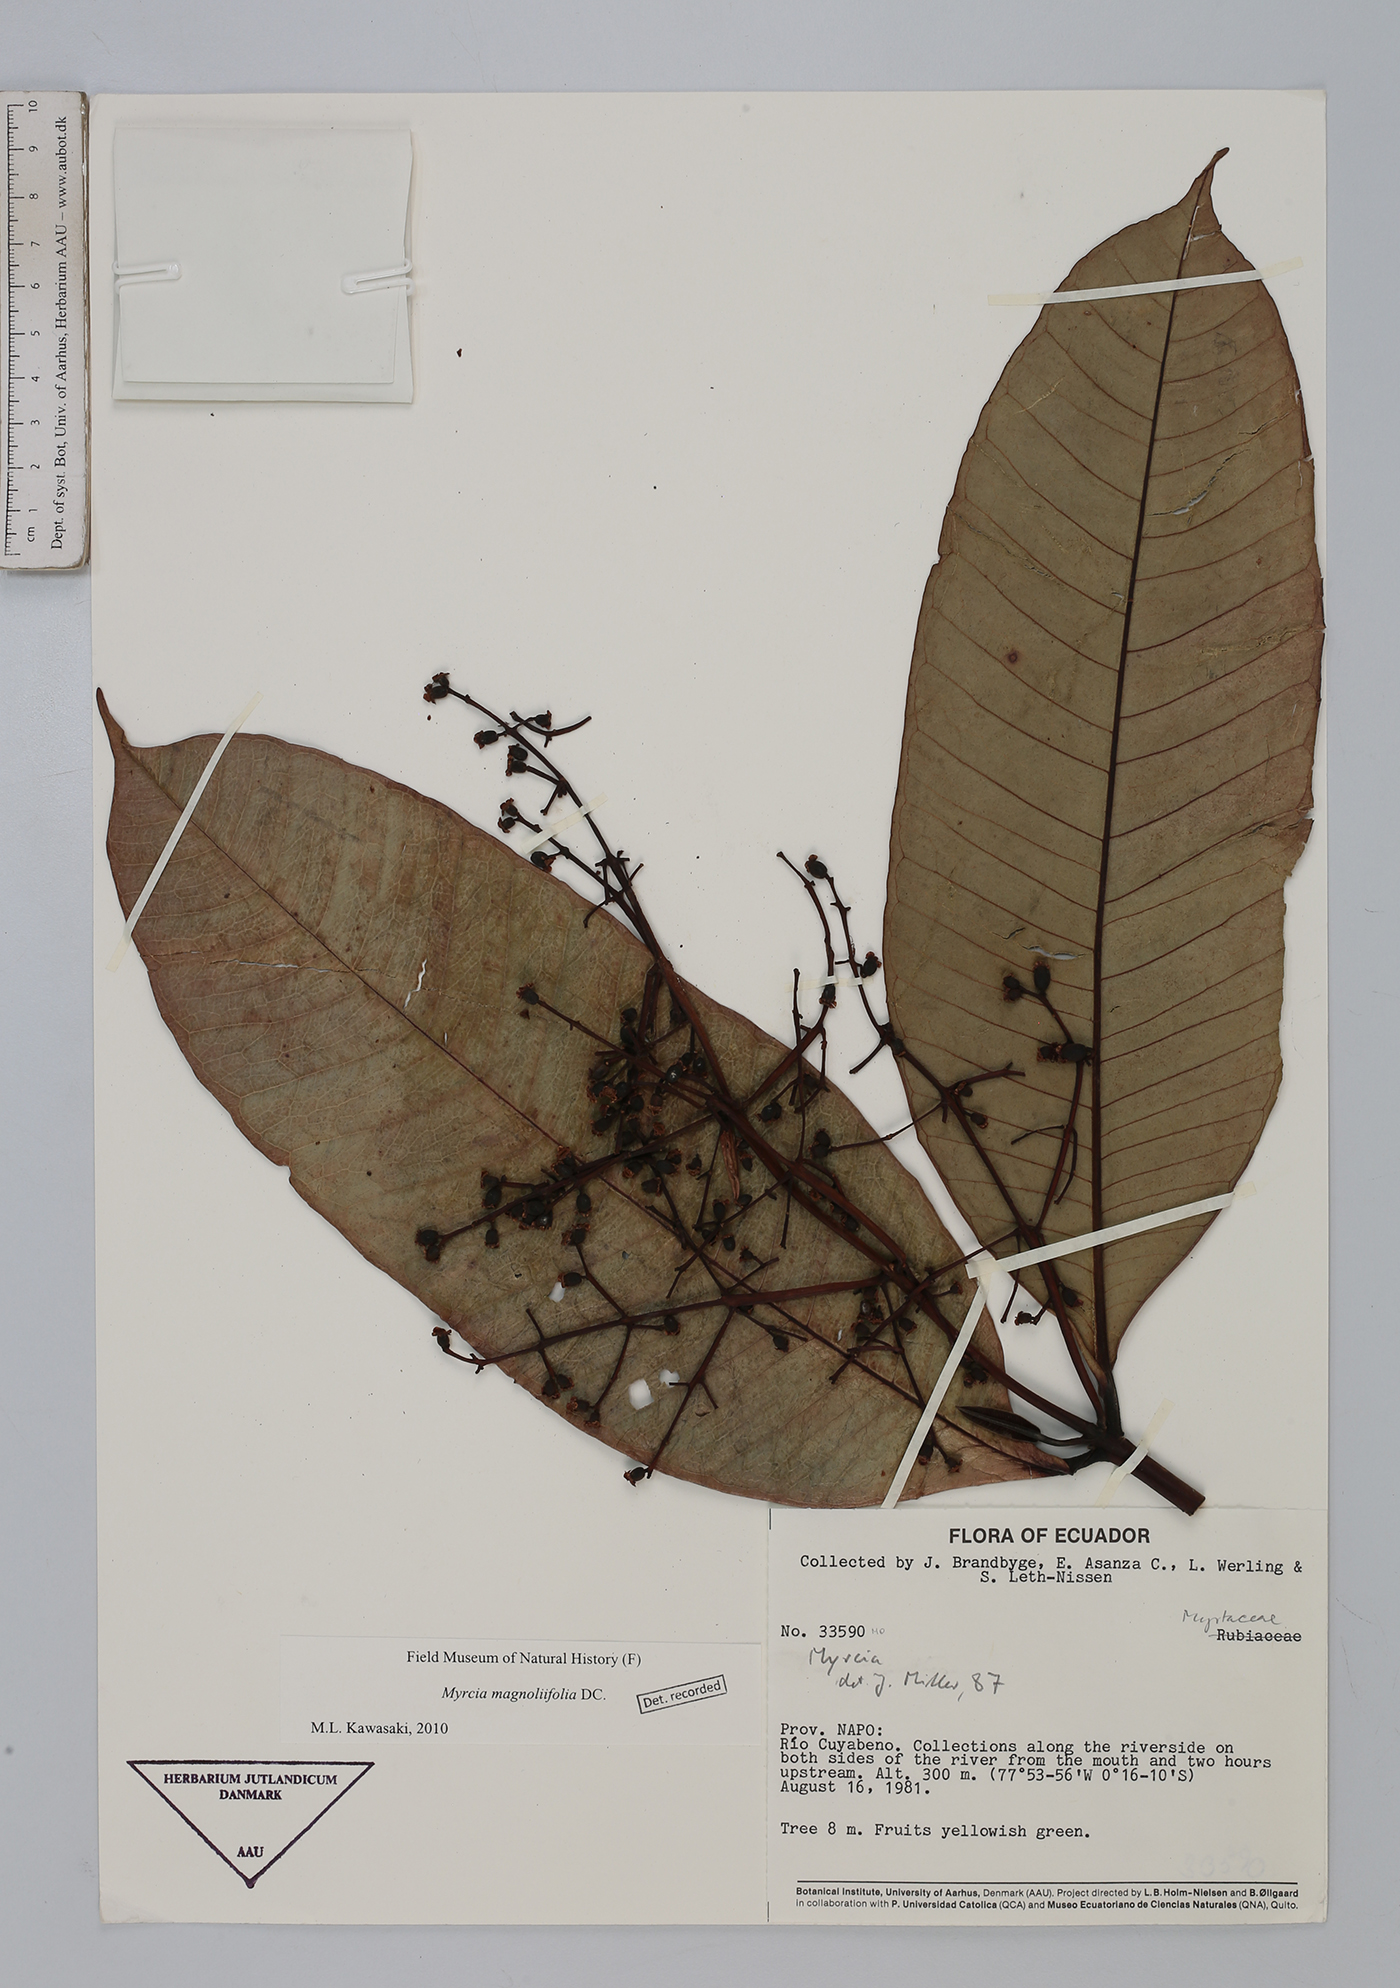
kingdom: Plantae
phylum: Tracheophyta
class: Magnoliopsida
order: Myrtales
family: Myrtaceae
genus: Myrcia
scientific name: Myrcia splendens
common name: Surinam cherry
